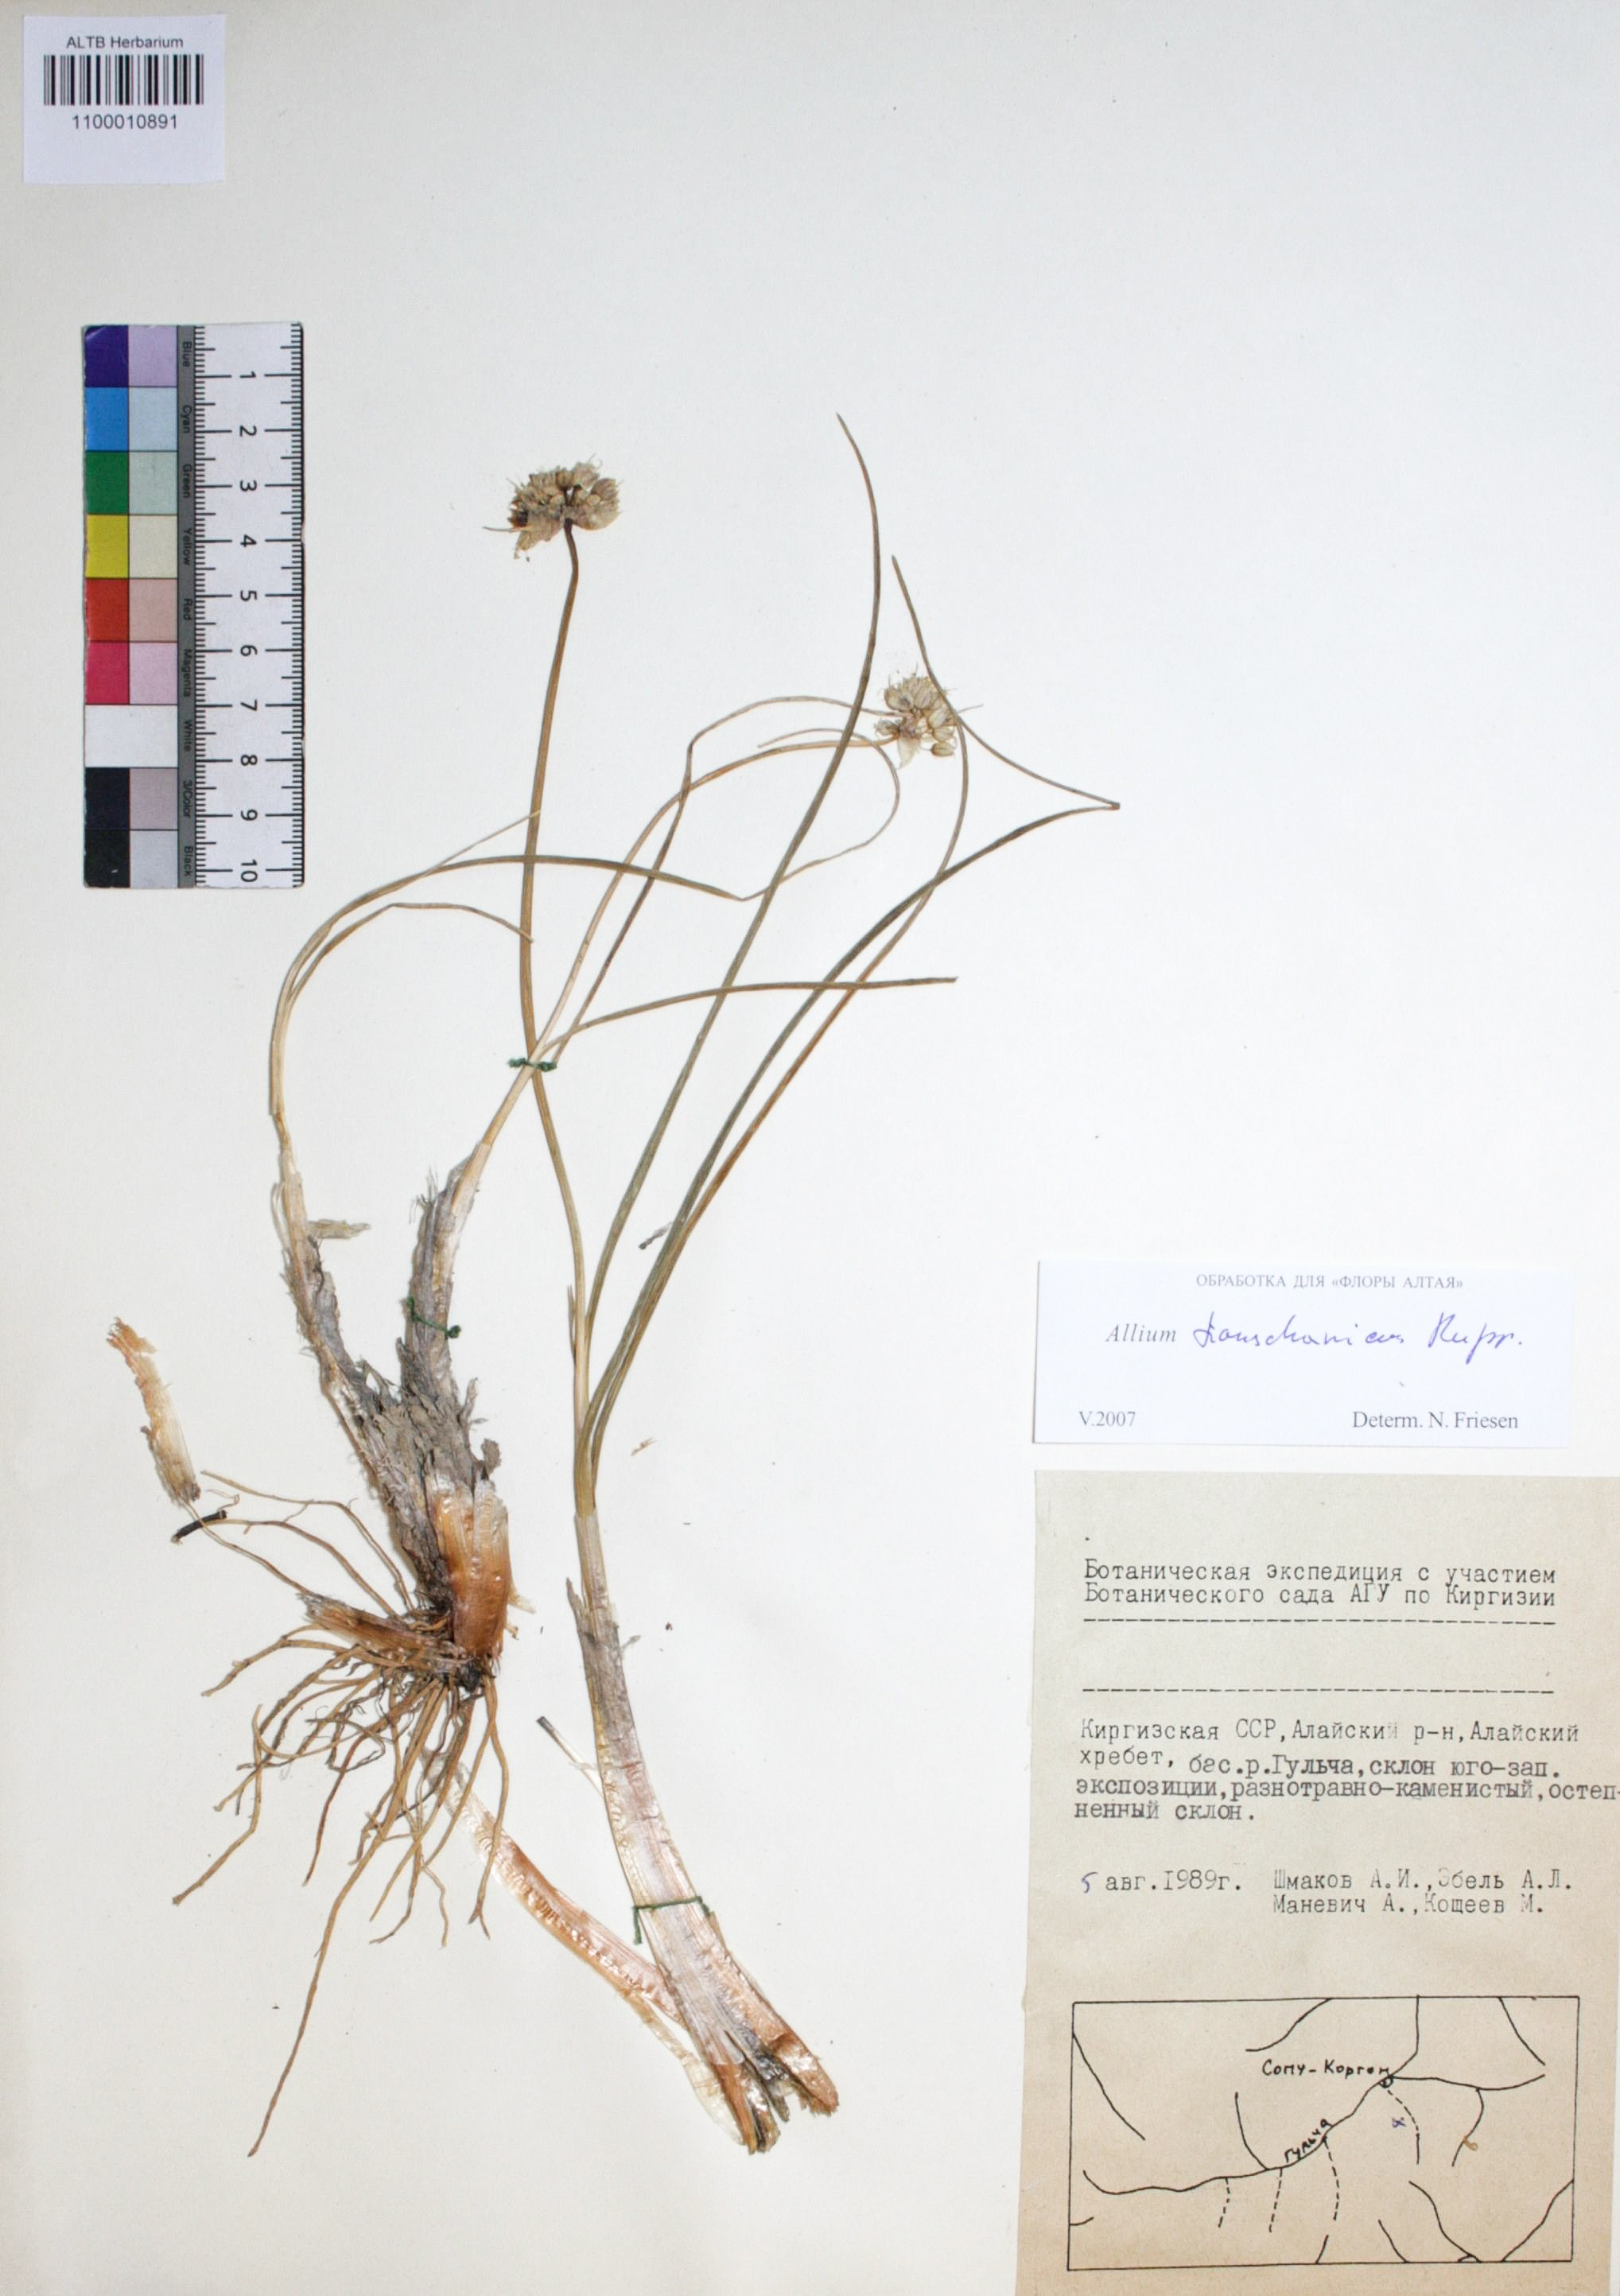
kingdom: Plantae
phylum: Tracheophyta
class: Liliopsida
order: Asparagales
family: Amaryllidaceae
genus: Allium
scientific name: Allium tianschanicum
